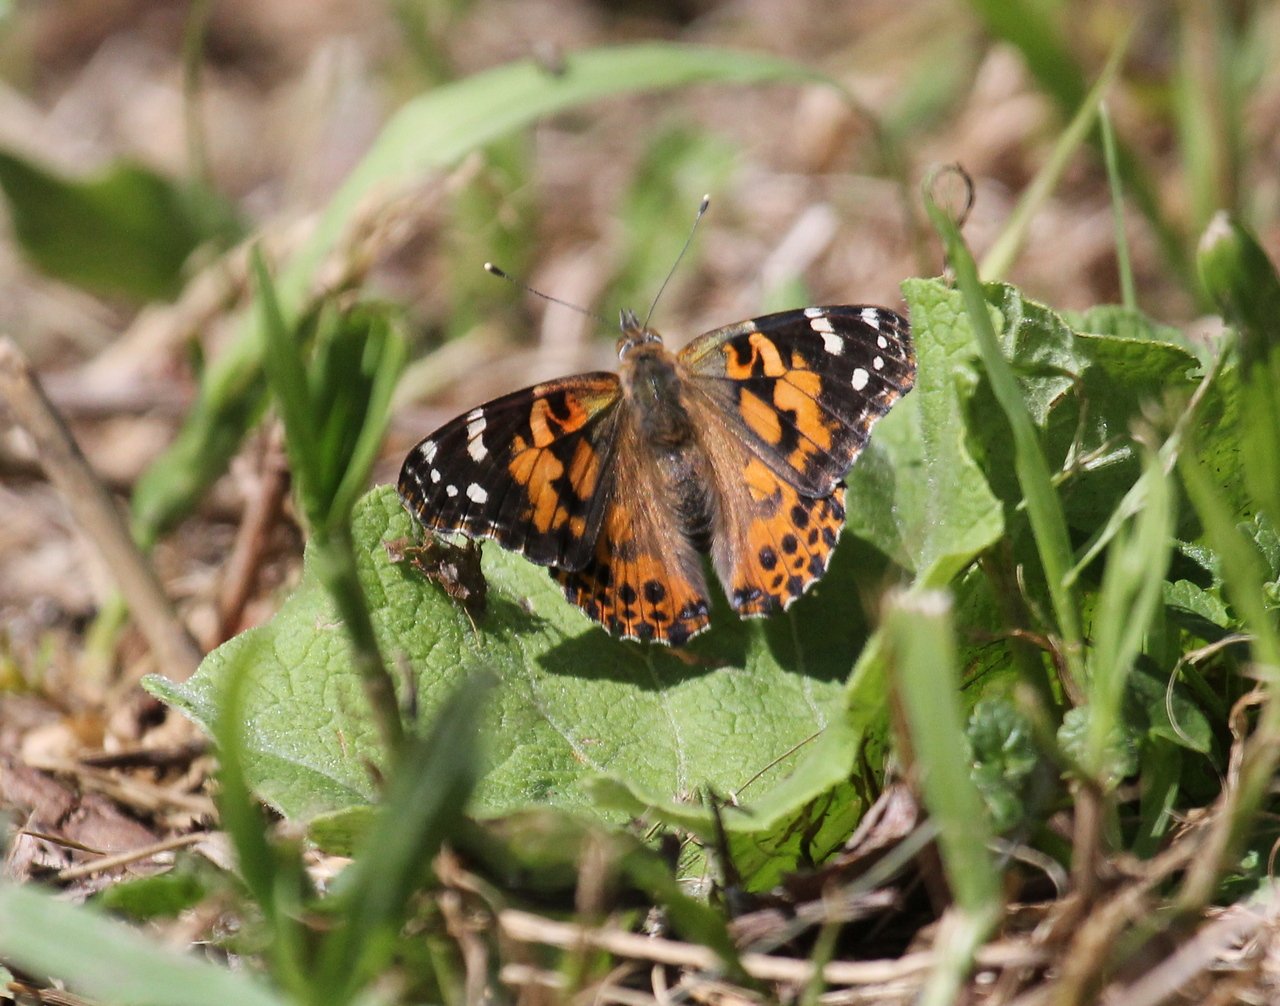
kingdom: Animalia
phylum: Arthropoda
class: Insecta
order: Lepidoptera
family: Nymphalidae
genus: Vanessa
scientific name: Vanessa cardui
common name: Painted Lady
